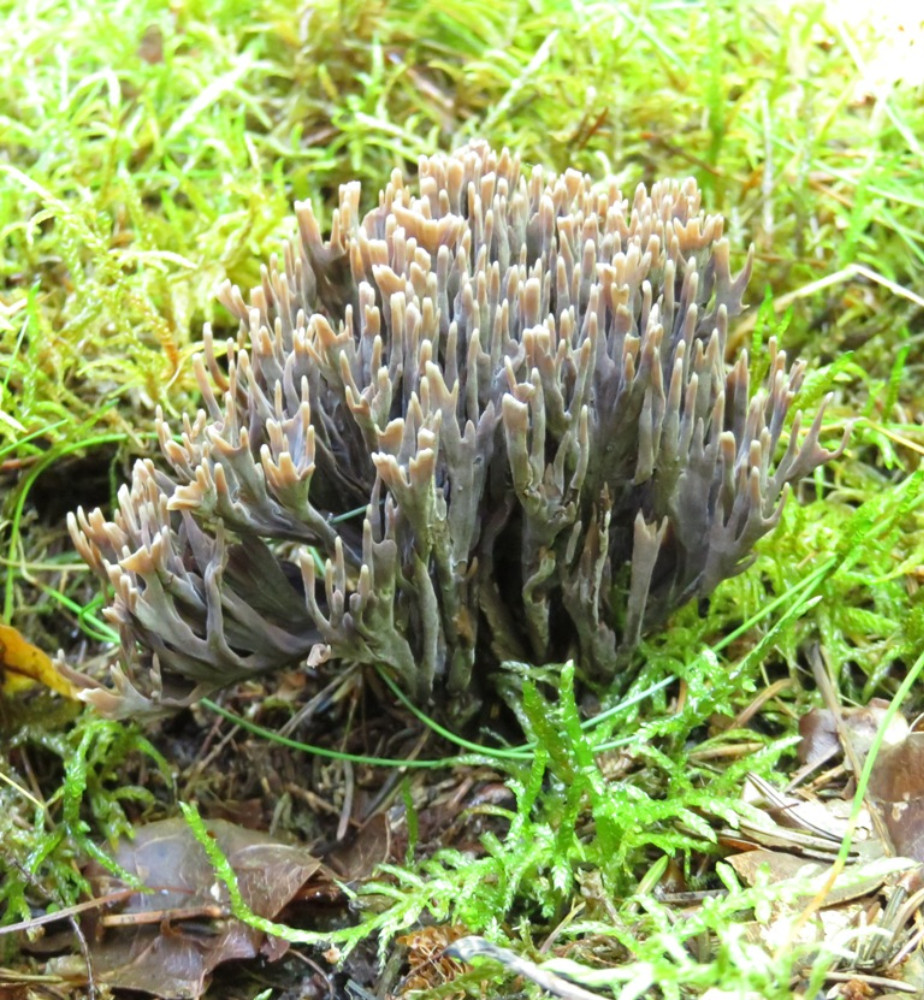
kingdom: Fungi
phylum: Basidiomycota
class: Agaricomycetes
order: Thelephorales
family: Thelephoraceae
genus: Thelephora
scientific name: Thelephora palmata
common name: grenet frynsesvamp
